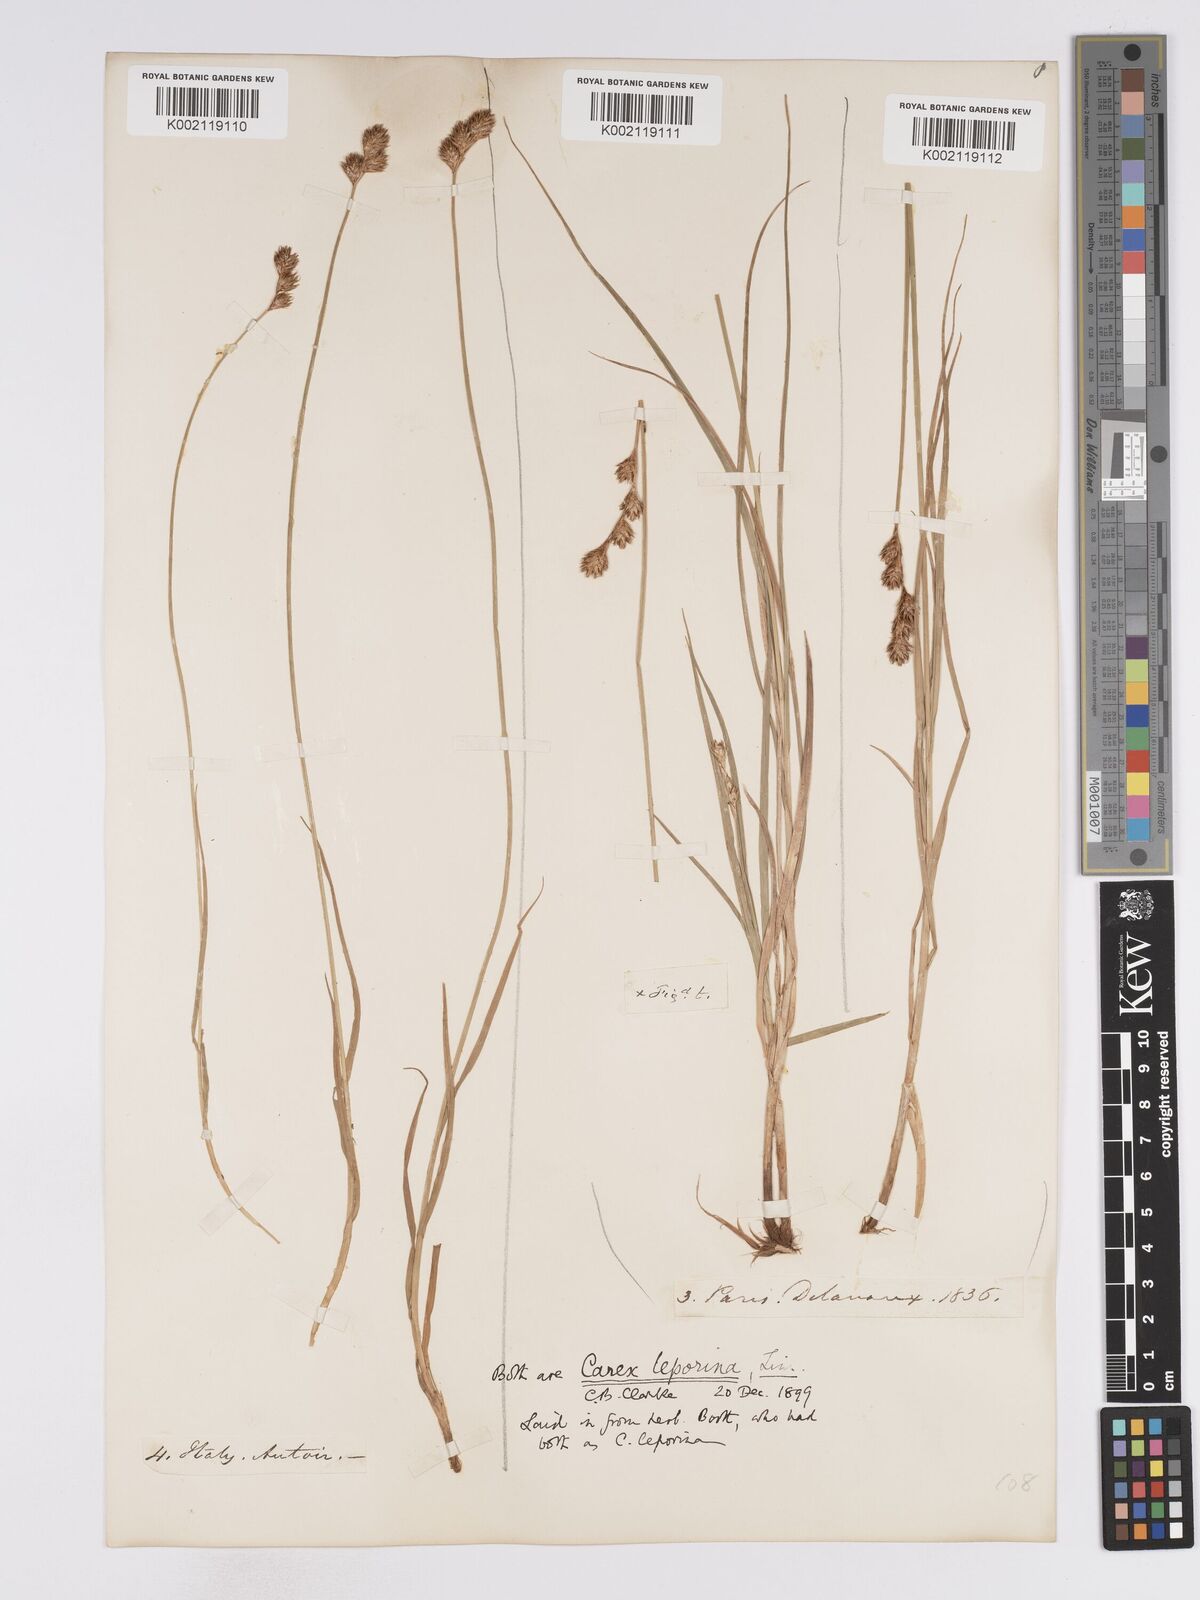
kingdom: Plantae
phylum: Tracheophyta
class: Liliopsida
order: Poales
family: Cyperaceae
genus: Carex
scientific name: Carex leporina
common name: Oval sedge
